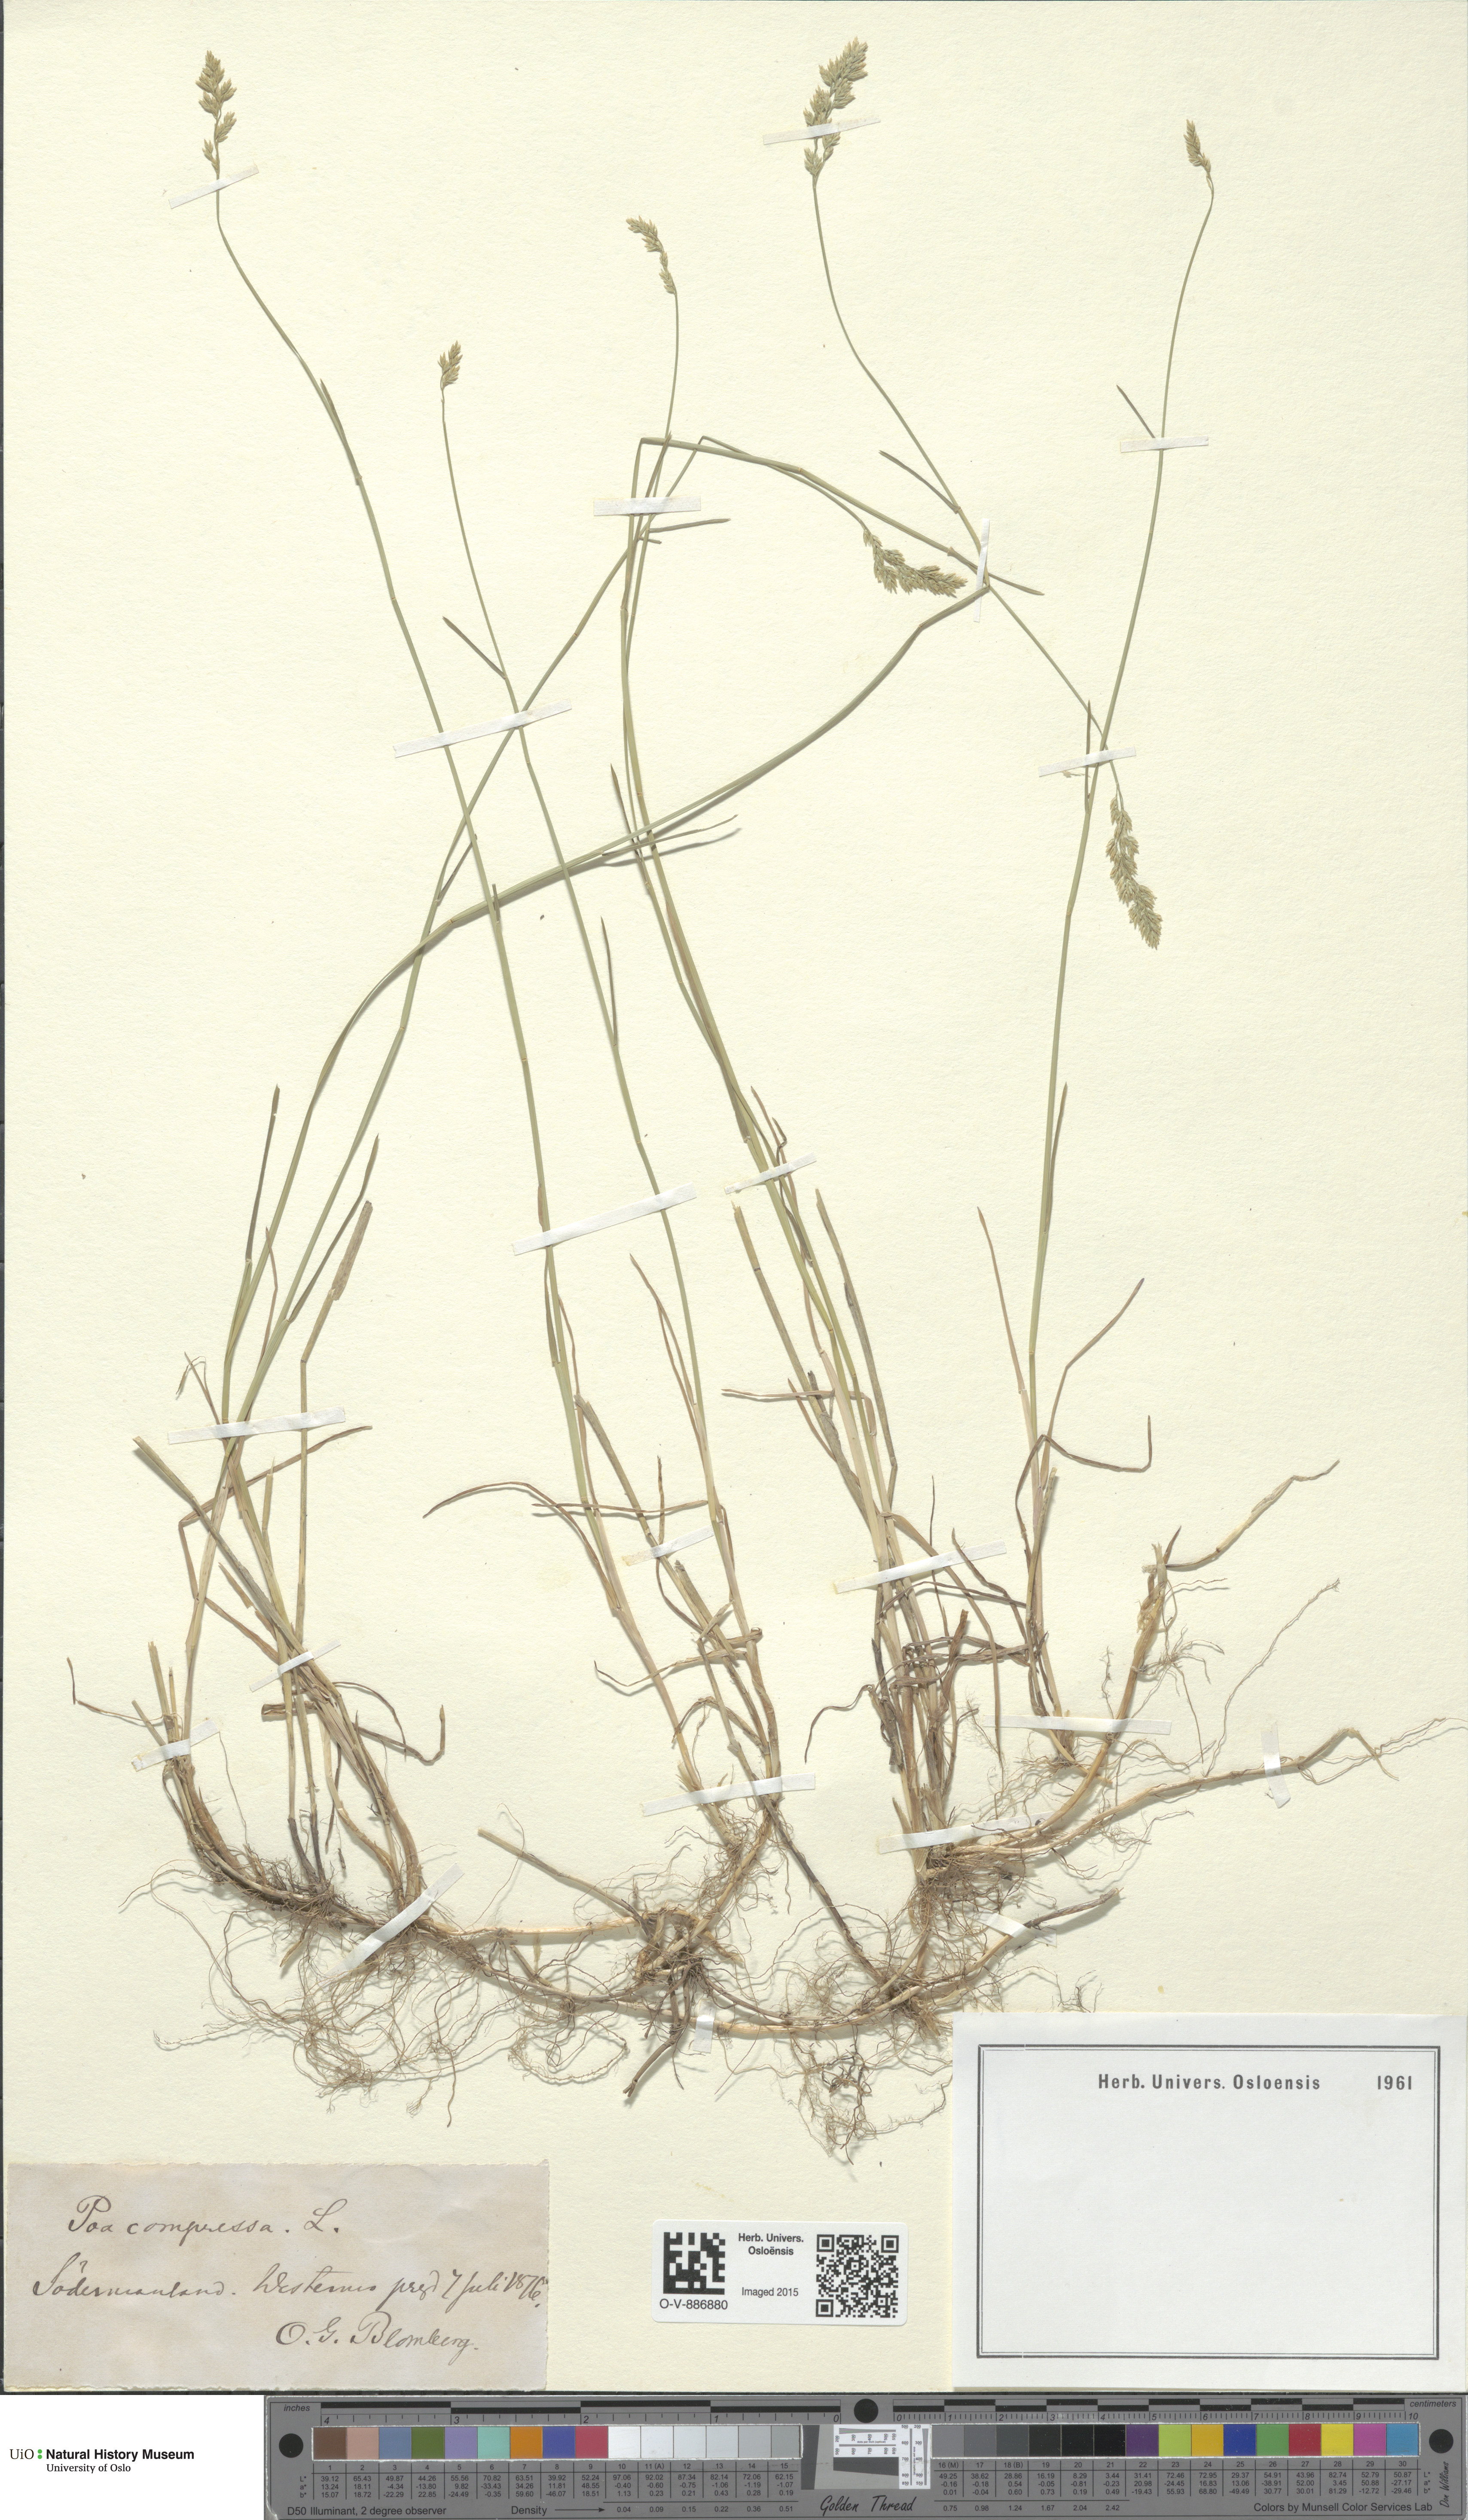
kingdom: Plantae
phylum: Tracheophyta
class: Liliopsida
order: Poales
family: Poaceae
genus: Poa
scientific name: Poa compressa
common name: Canada bluegrass
